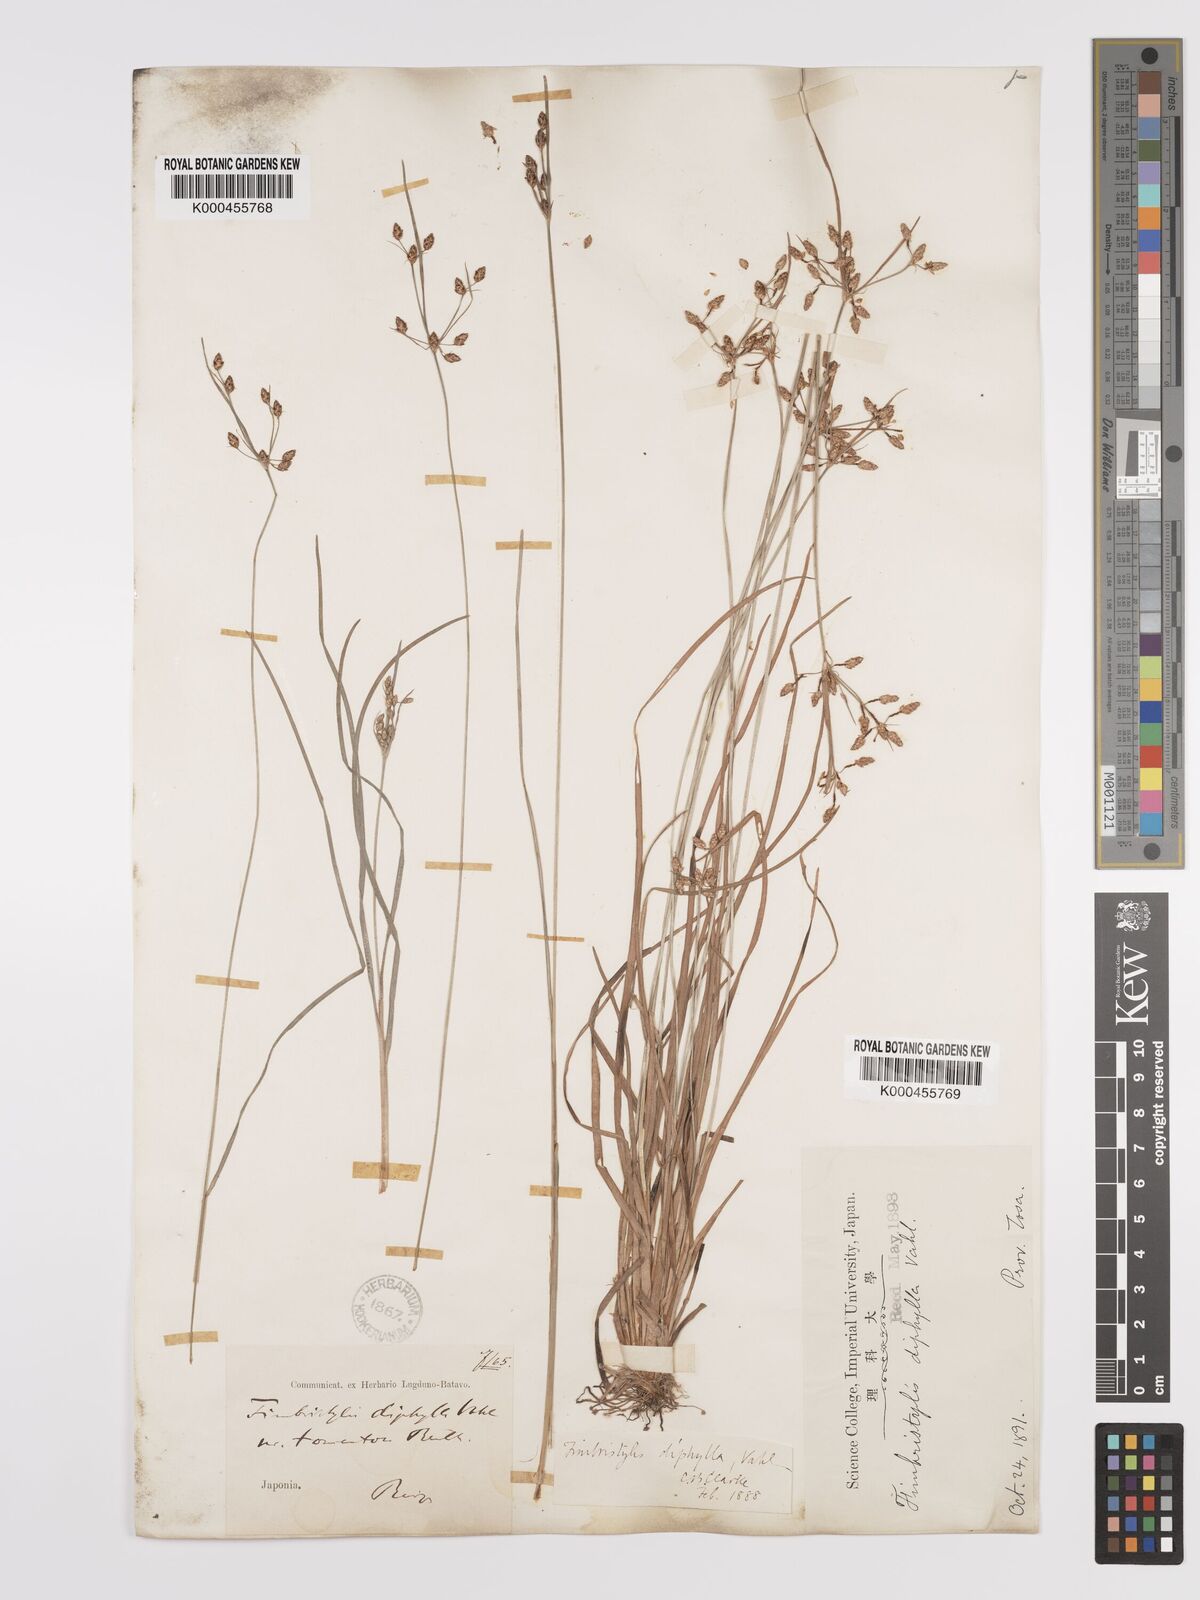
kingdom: Plantae
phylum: Tracheophyta
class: Liliopsida
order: Poales
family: Cyperaceae
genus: Fimbristylis
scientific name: Fimbristylis dichotoma
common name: Forked fimbry
